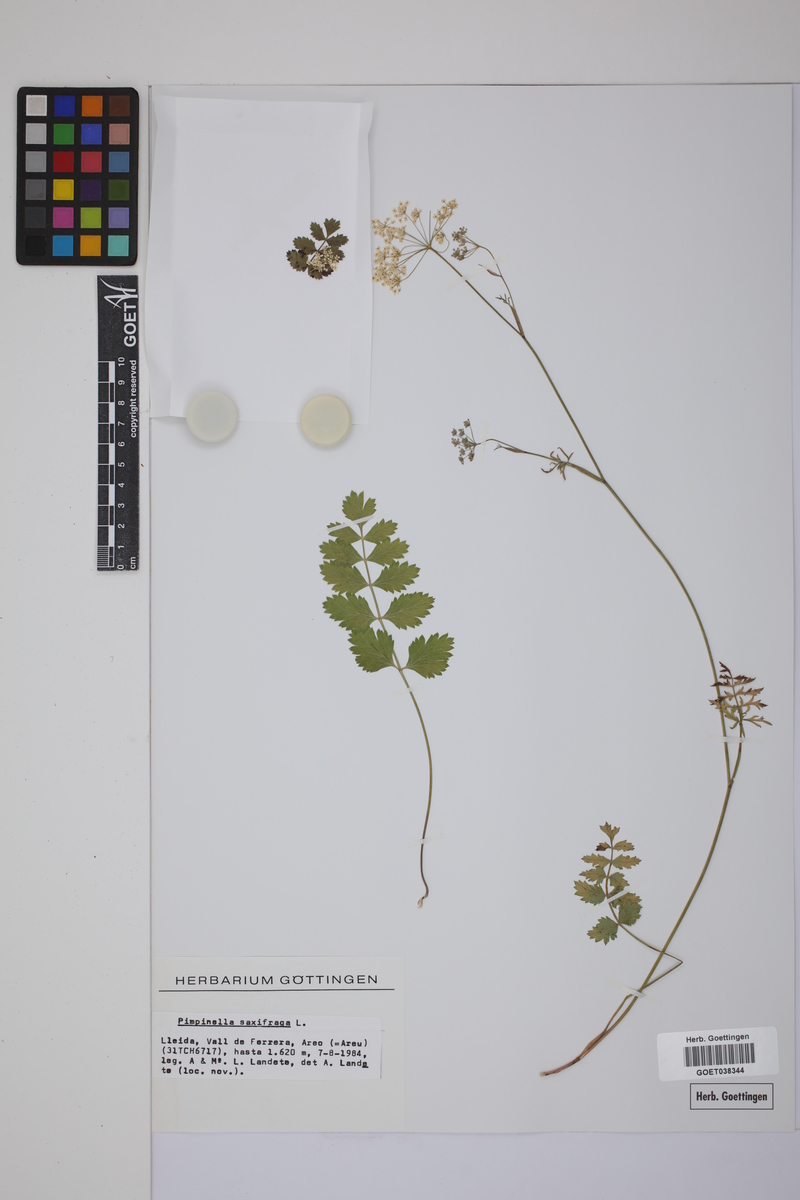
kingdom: Plantae
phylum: Tracheophyta
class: Magnoliopsida
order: Apiales
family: Apiaceae
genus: Pimpinella
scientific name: Pimpinella saxifraga
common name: Burnet-saxifrage
